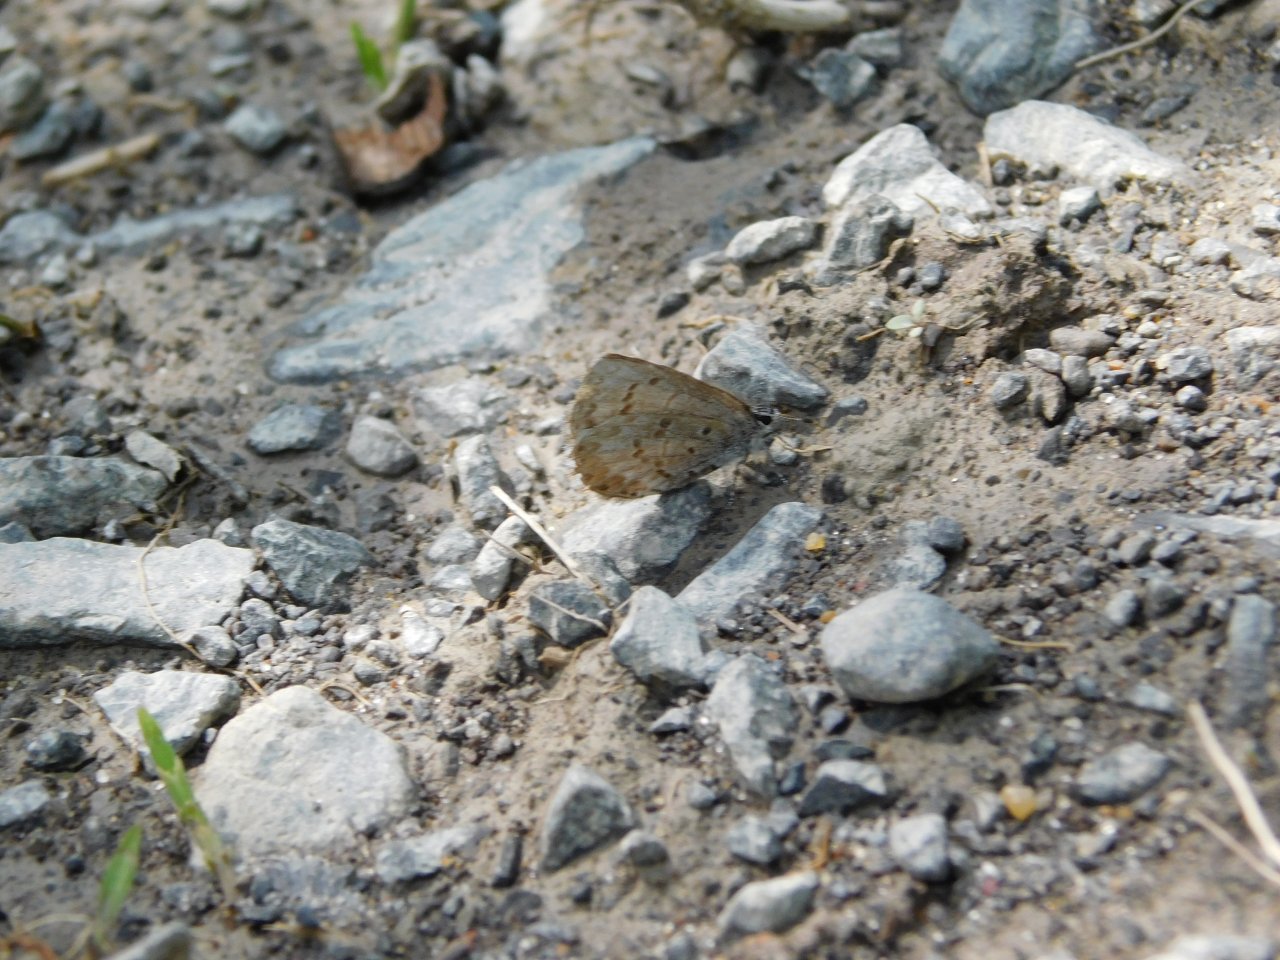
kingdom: Animalia
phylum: Arthropoda
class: Insecta
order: Lepidoptera
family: Lycaenidae
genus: Celastrina
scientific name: Celastrina lucia
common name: Northern Spring Azure
